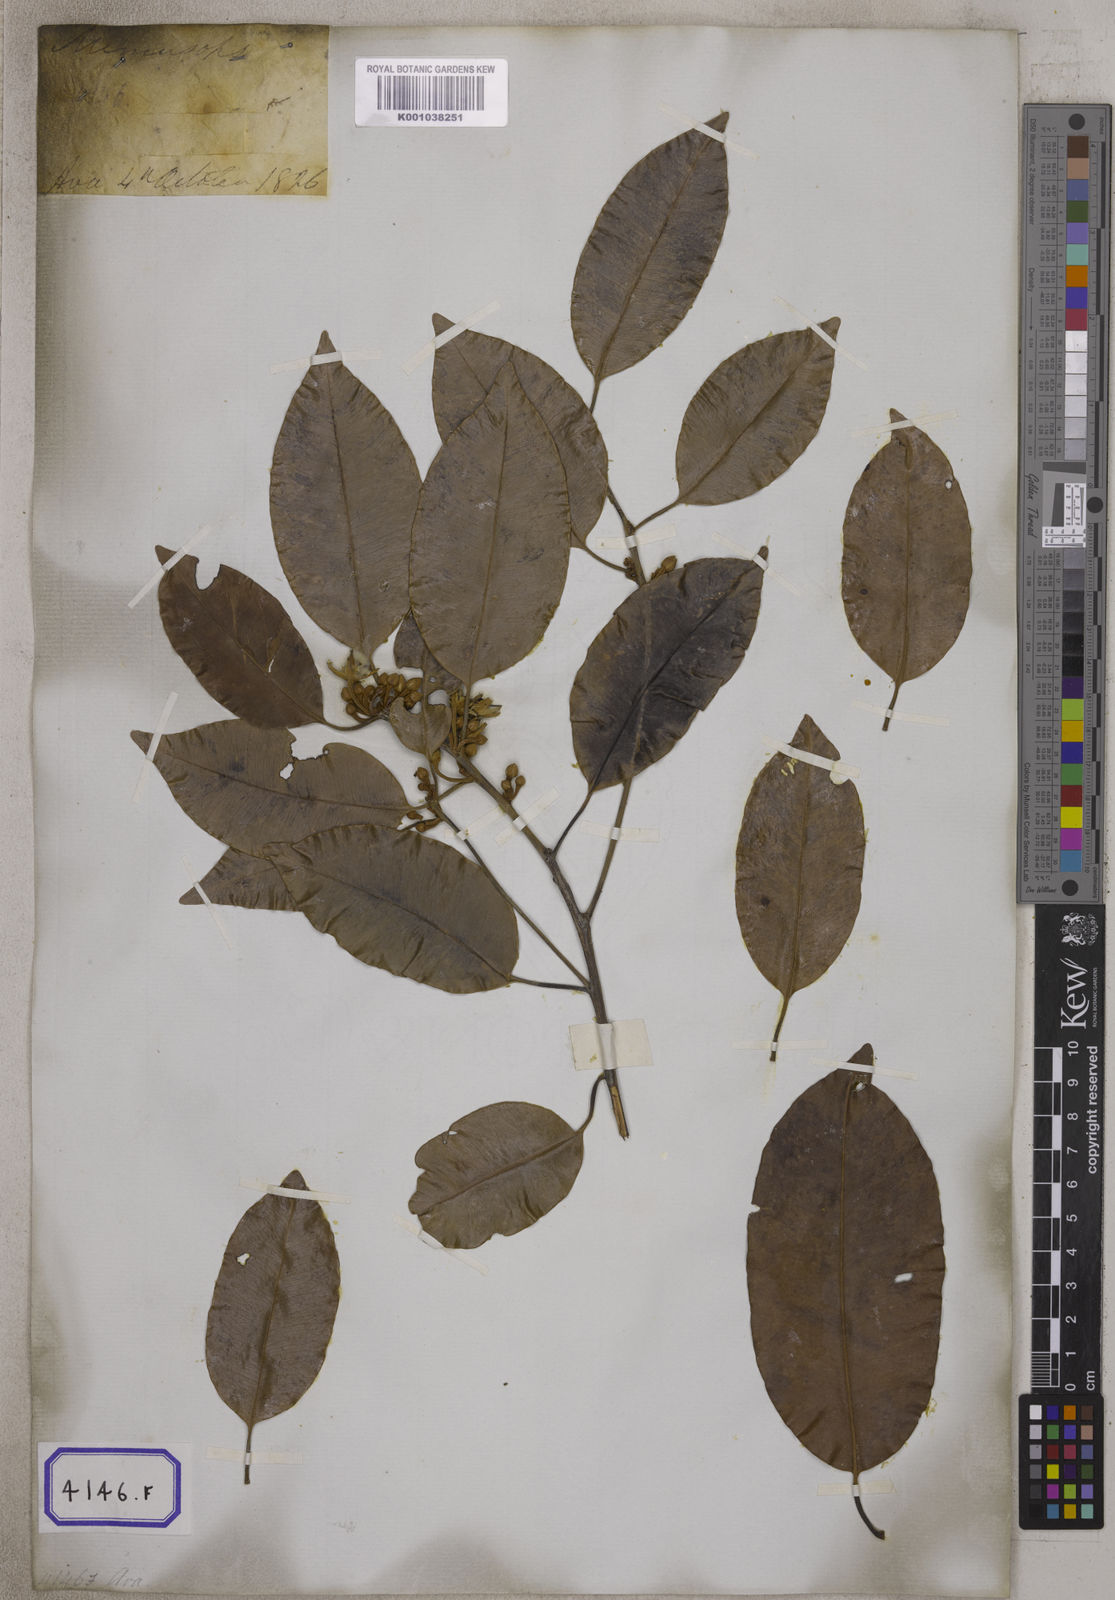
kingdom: Plantae
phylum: Tracheophyta
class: Magnoliopsida
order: Ericales
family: Sapotaceae
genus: Mimusops
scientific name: Mimusops
